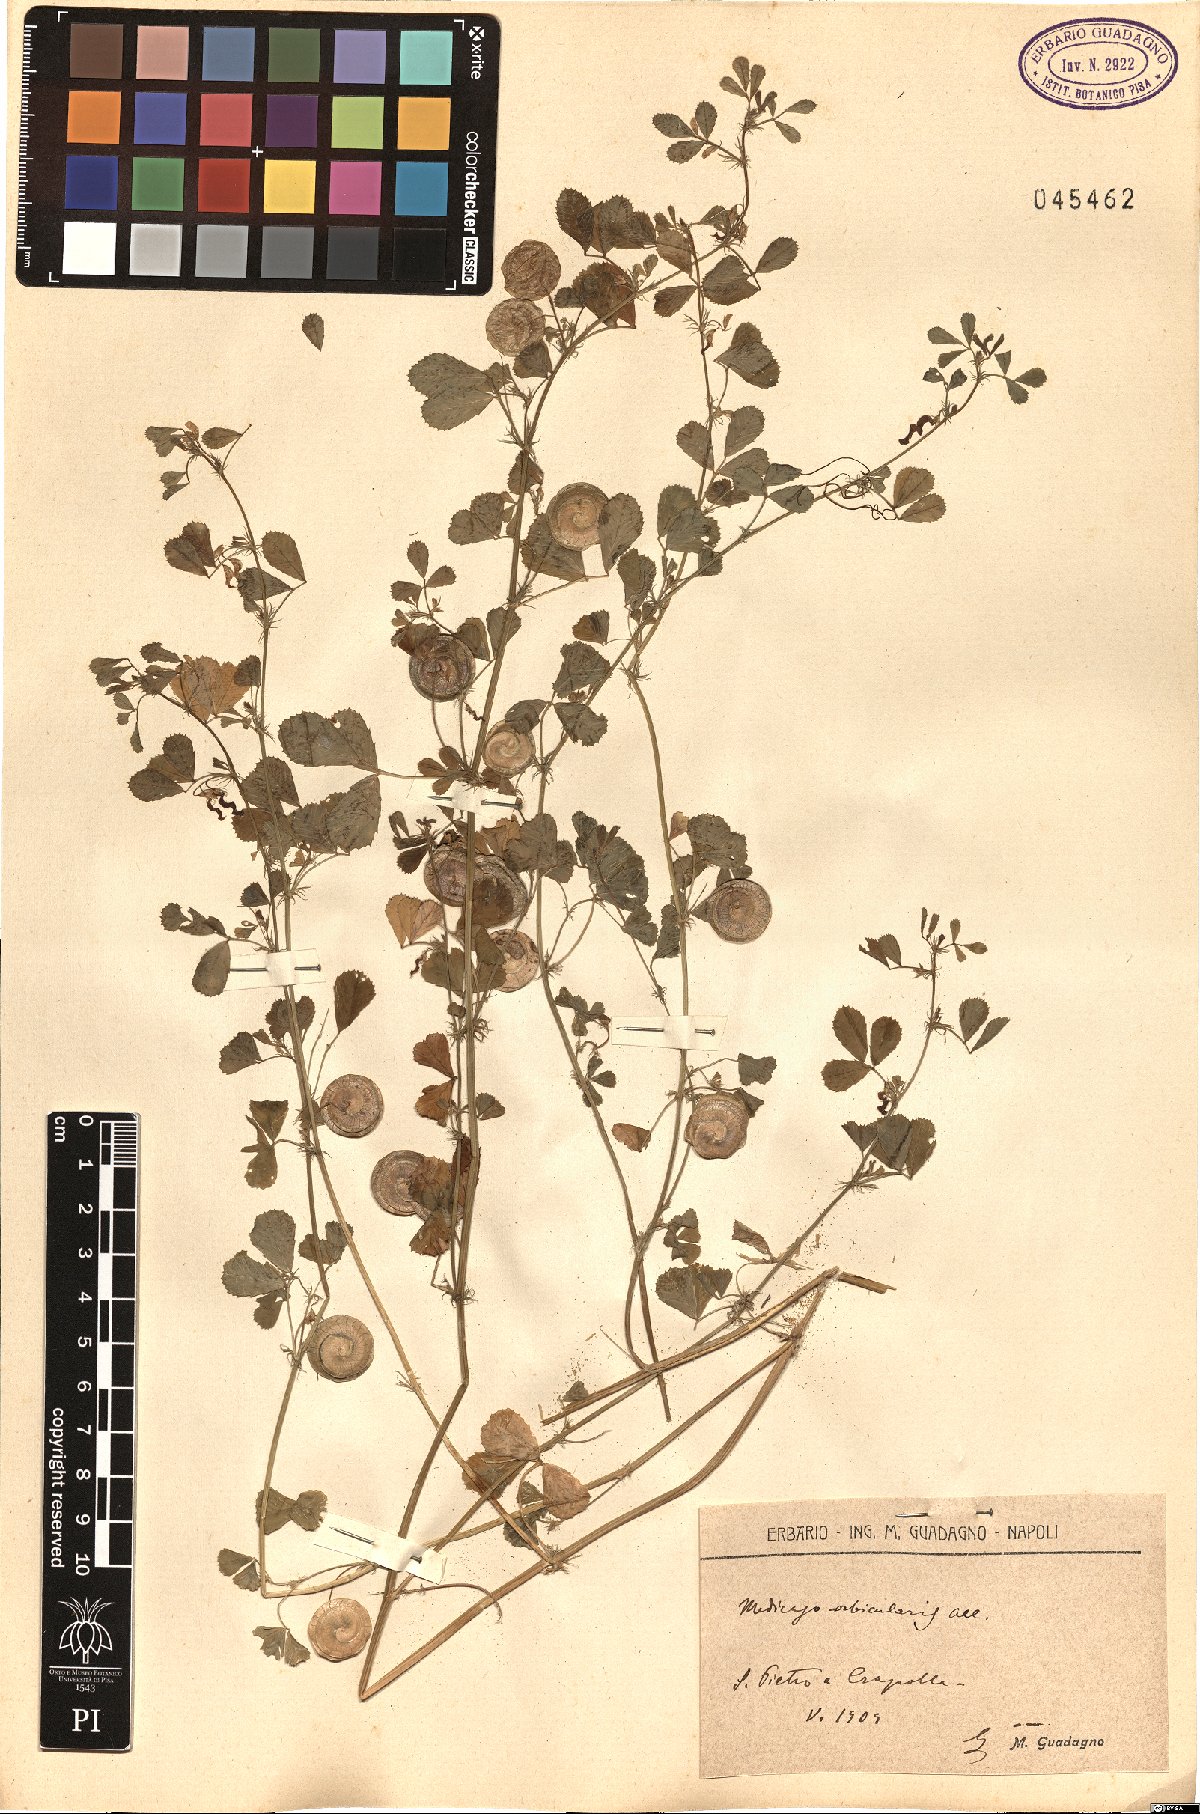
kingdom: Plantae
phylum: Tracheophyta
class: Magnoliopsida
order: Fabales
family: Fabaceae
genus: Medicago
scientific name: Medicago orbicularis
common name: Button medick
